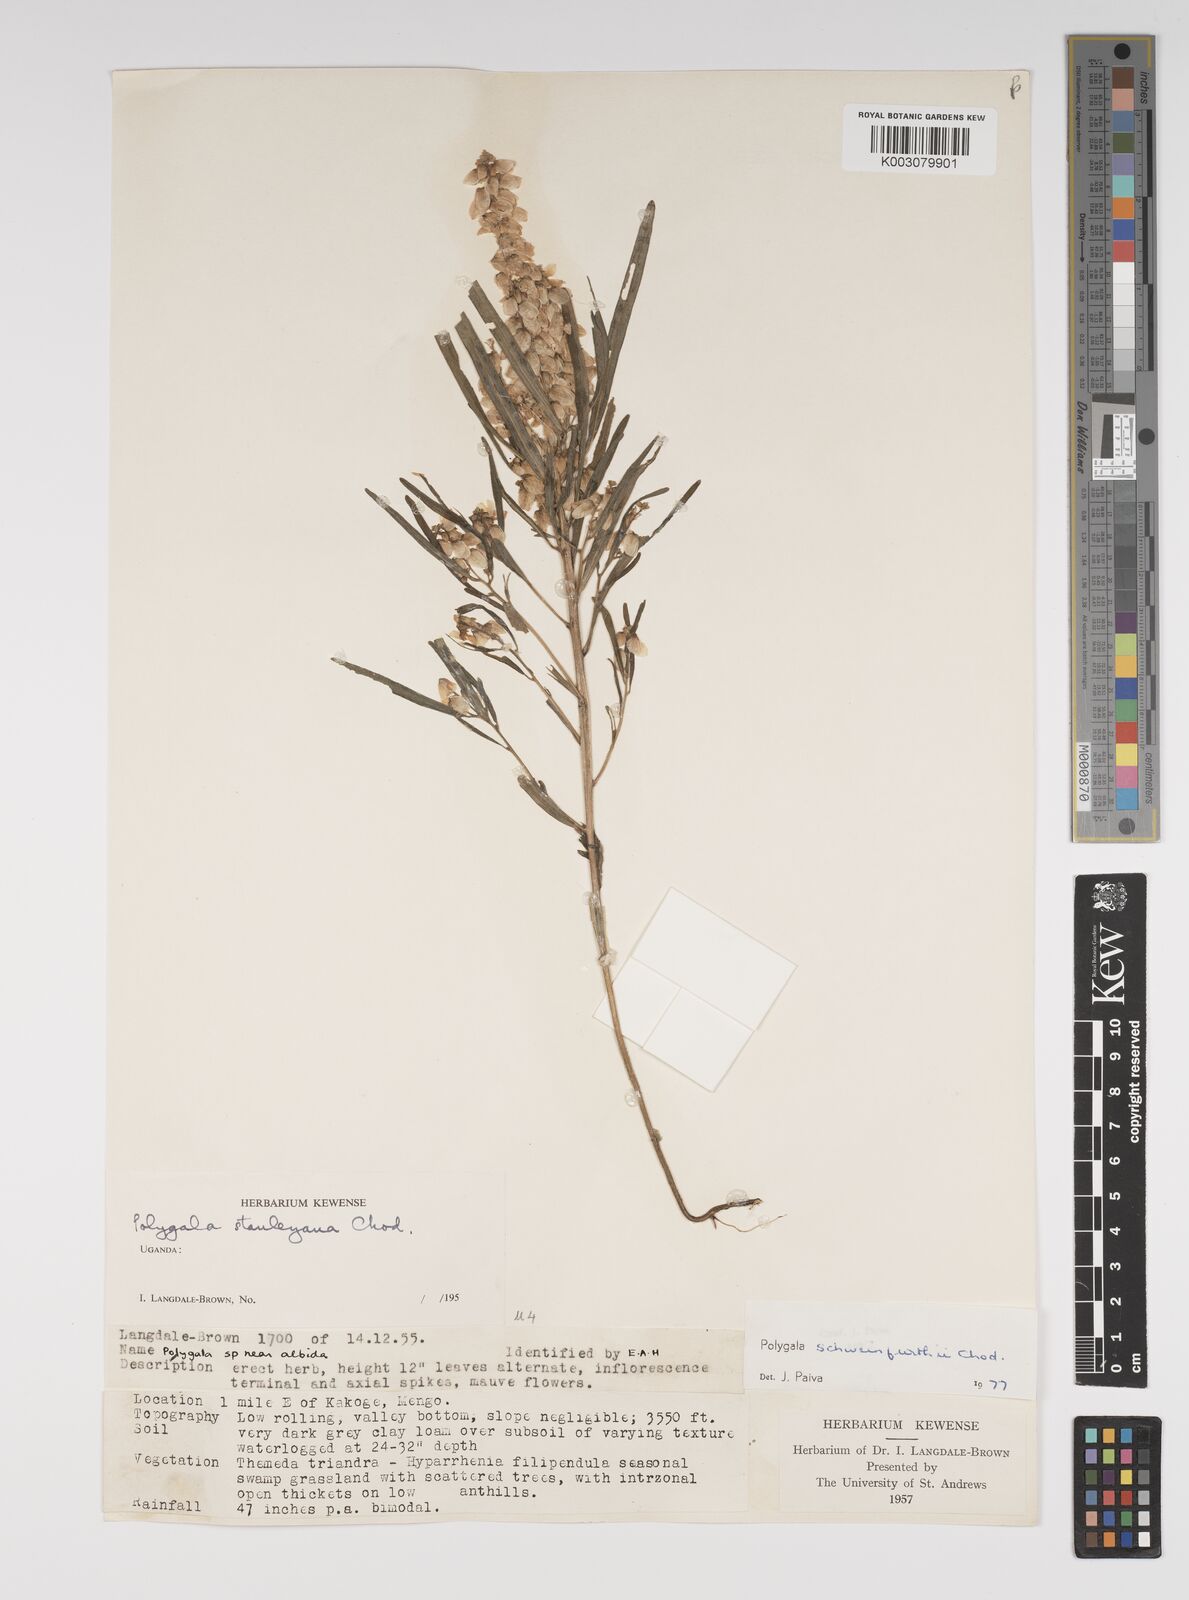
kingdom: Plantae
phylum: Tracheophyta
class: Magnoliopsida
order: Fabales
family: Polygalaceae
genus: Polygala
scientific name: Polygala schweinfurthii
